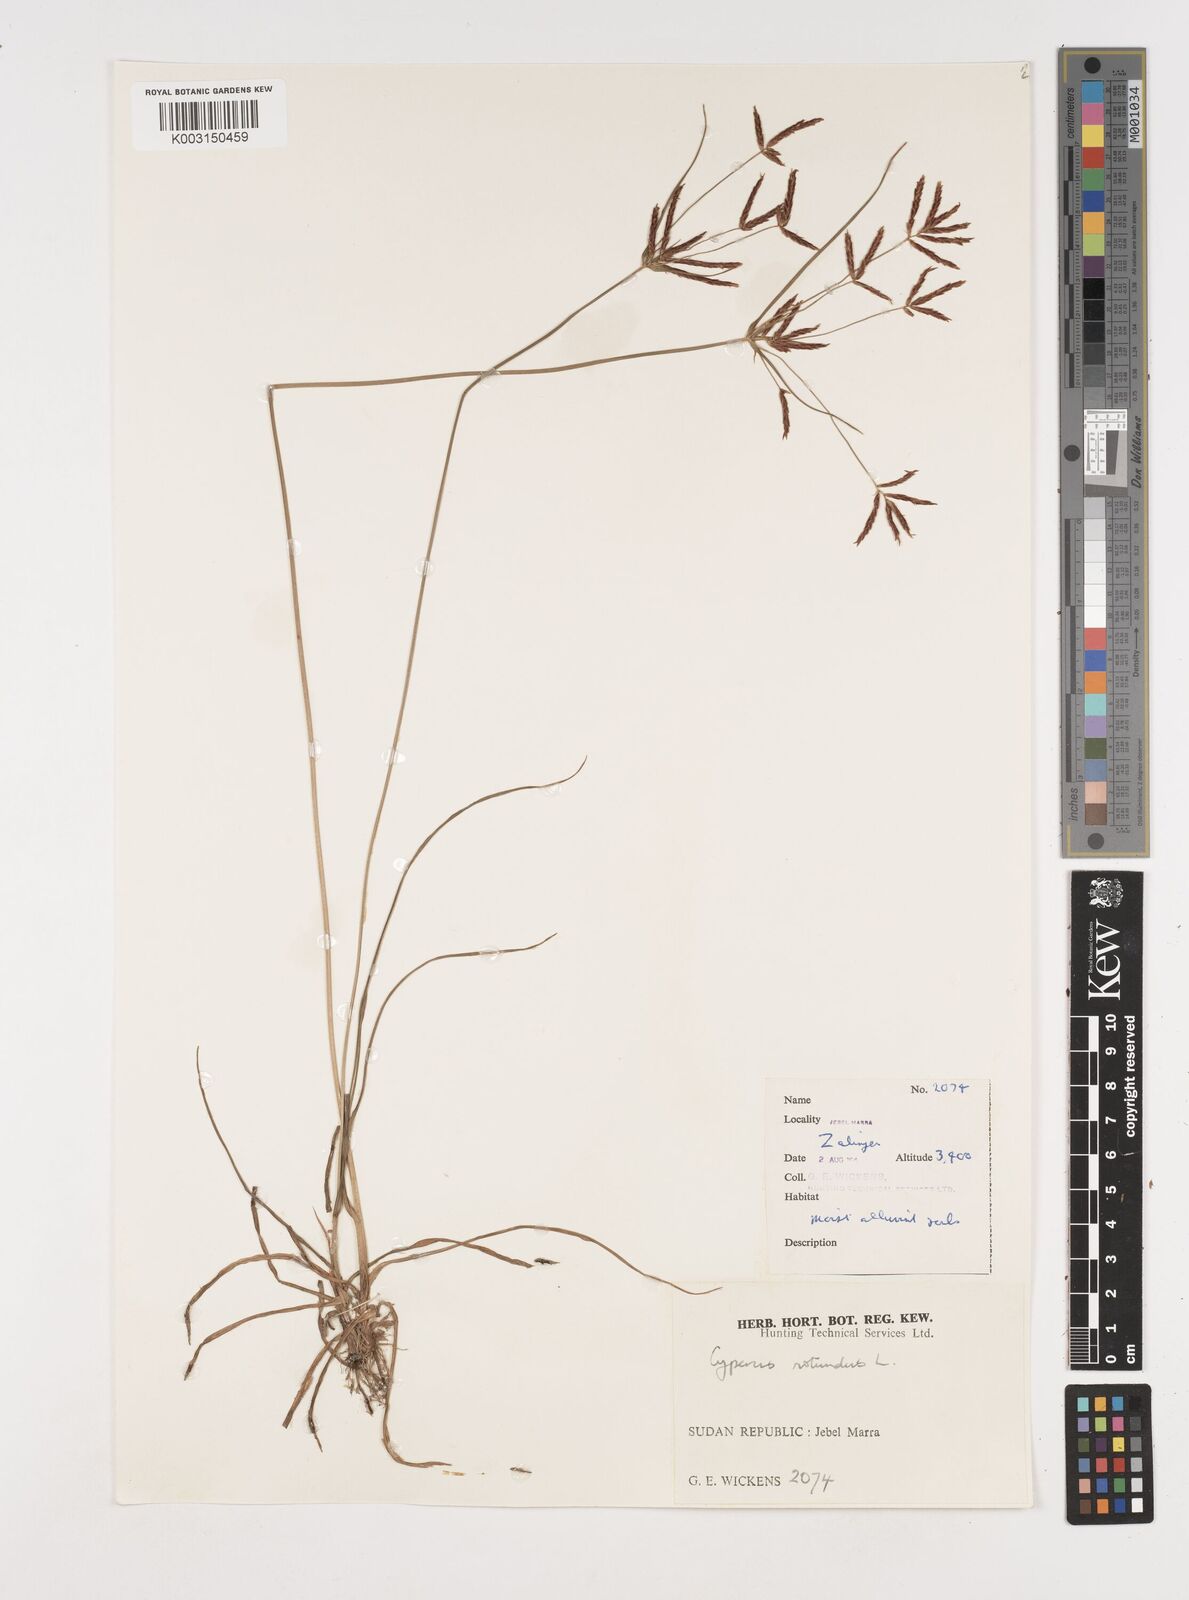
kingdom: Plantae
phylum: Tracheophyta
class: Liliopsida
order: Poales
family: Cyperaceae
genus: Cyperus
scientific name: Cyperus rotundus
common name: Nutgrass
